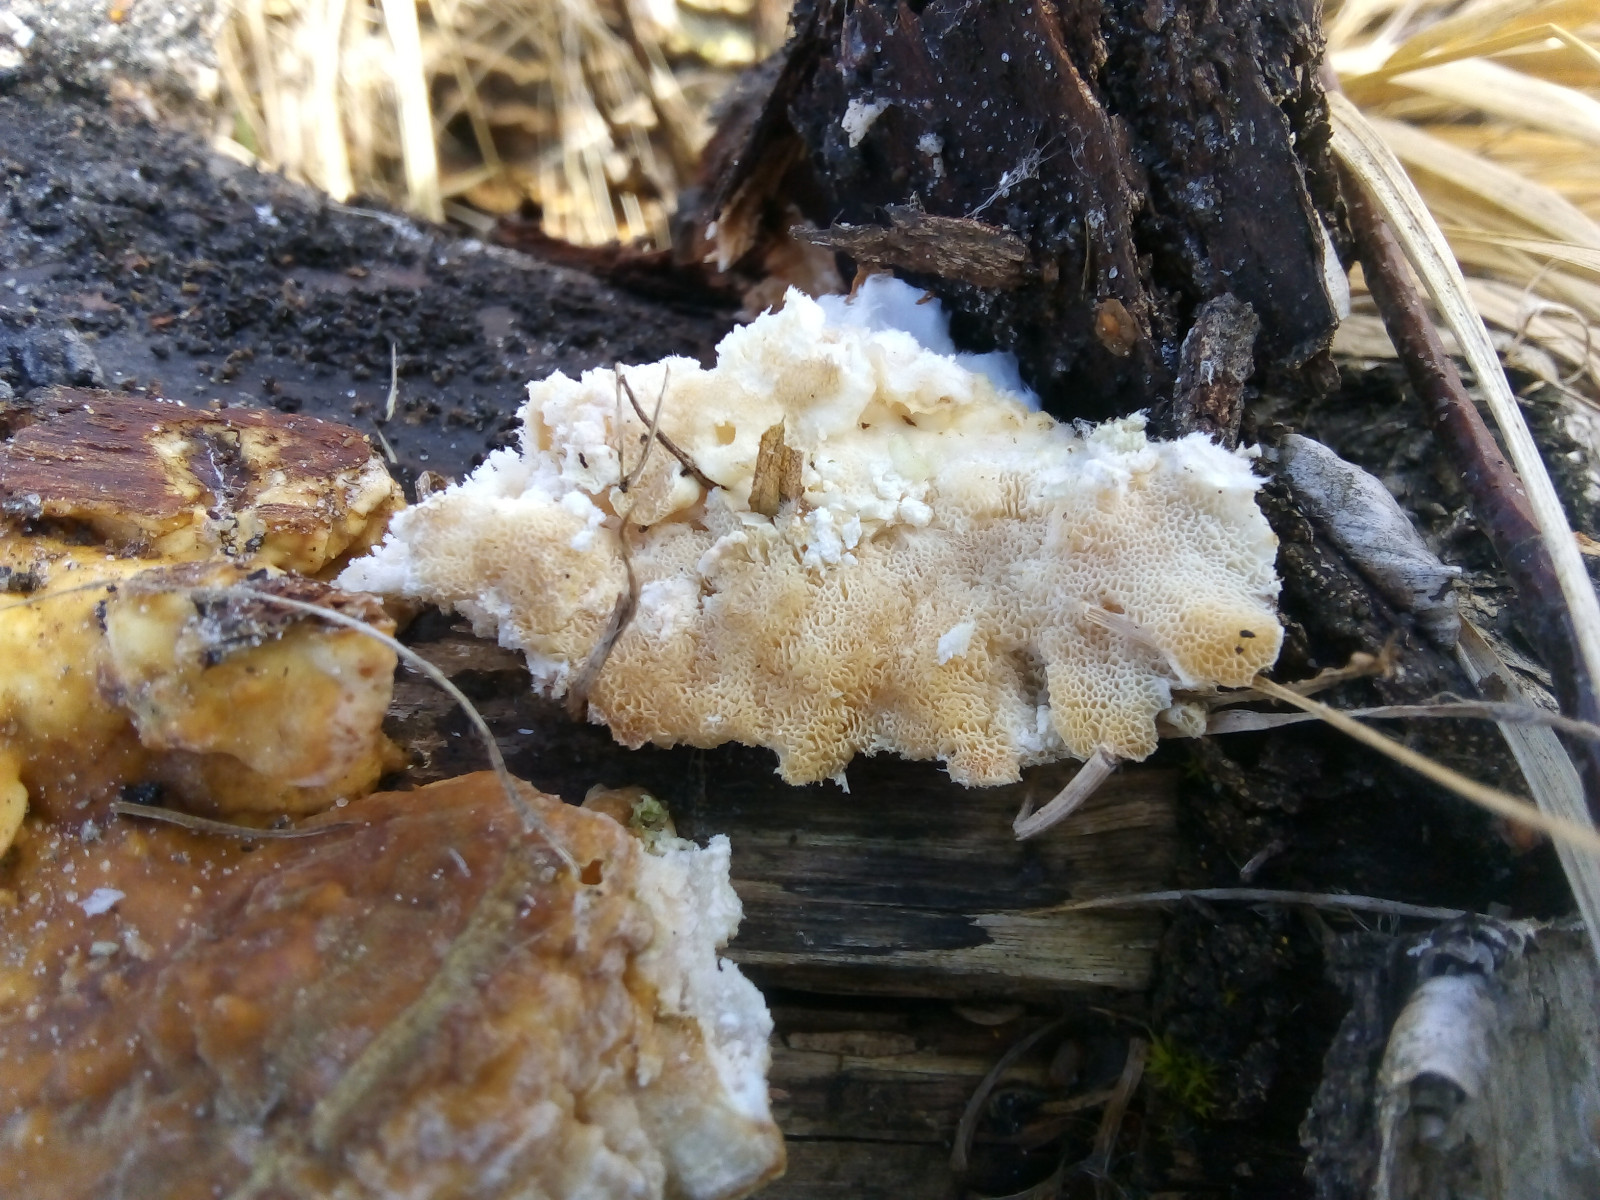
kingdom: Fungi
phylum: Basidiomycota
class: Agaricomycetes
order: Polyporales
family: Polyporaceae
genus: Trametes
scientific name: Trametes ochracea
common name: bæltet læderporesvamp
